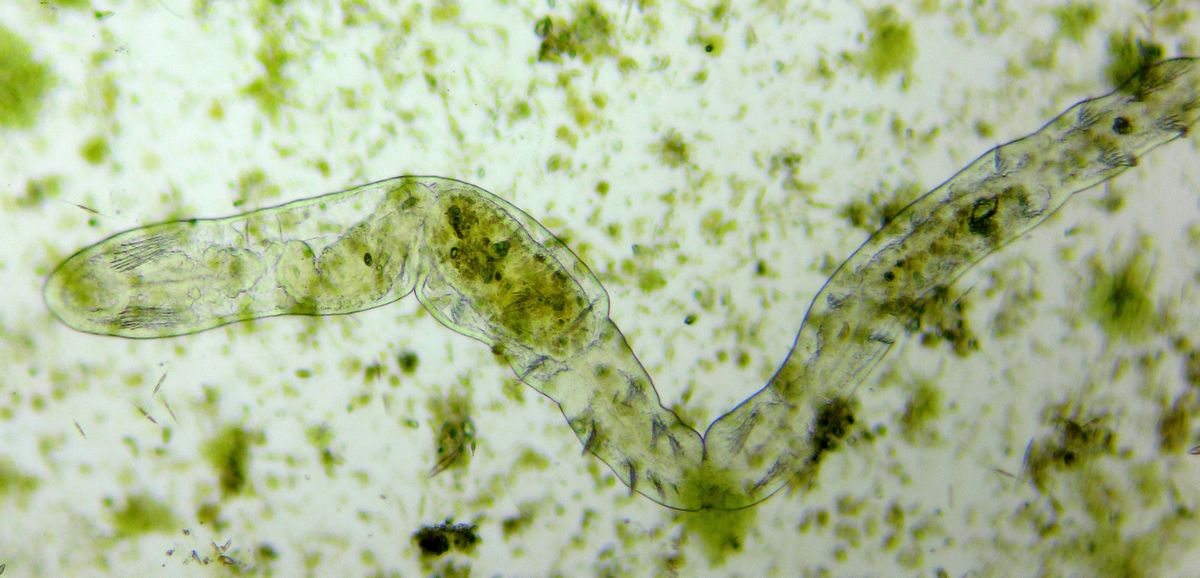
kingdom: Animalia
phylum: Annelida
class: Clitellata
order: Tubificida
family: Naididae
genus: Chaetogaster
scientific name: Chaetogaster langi
